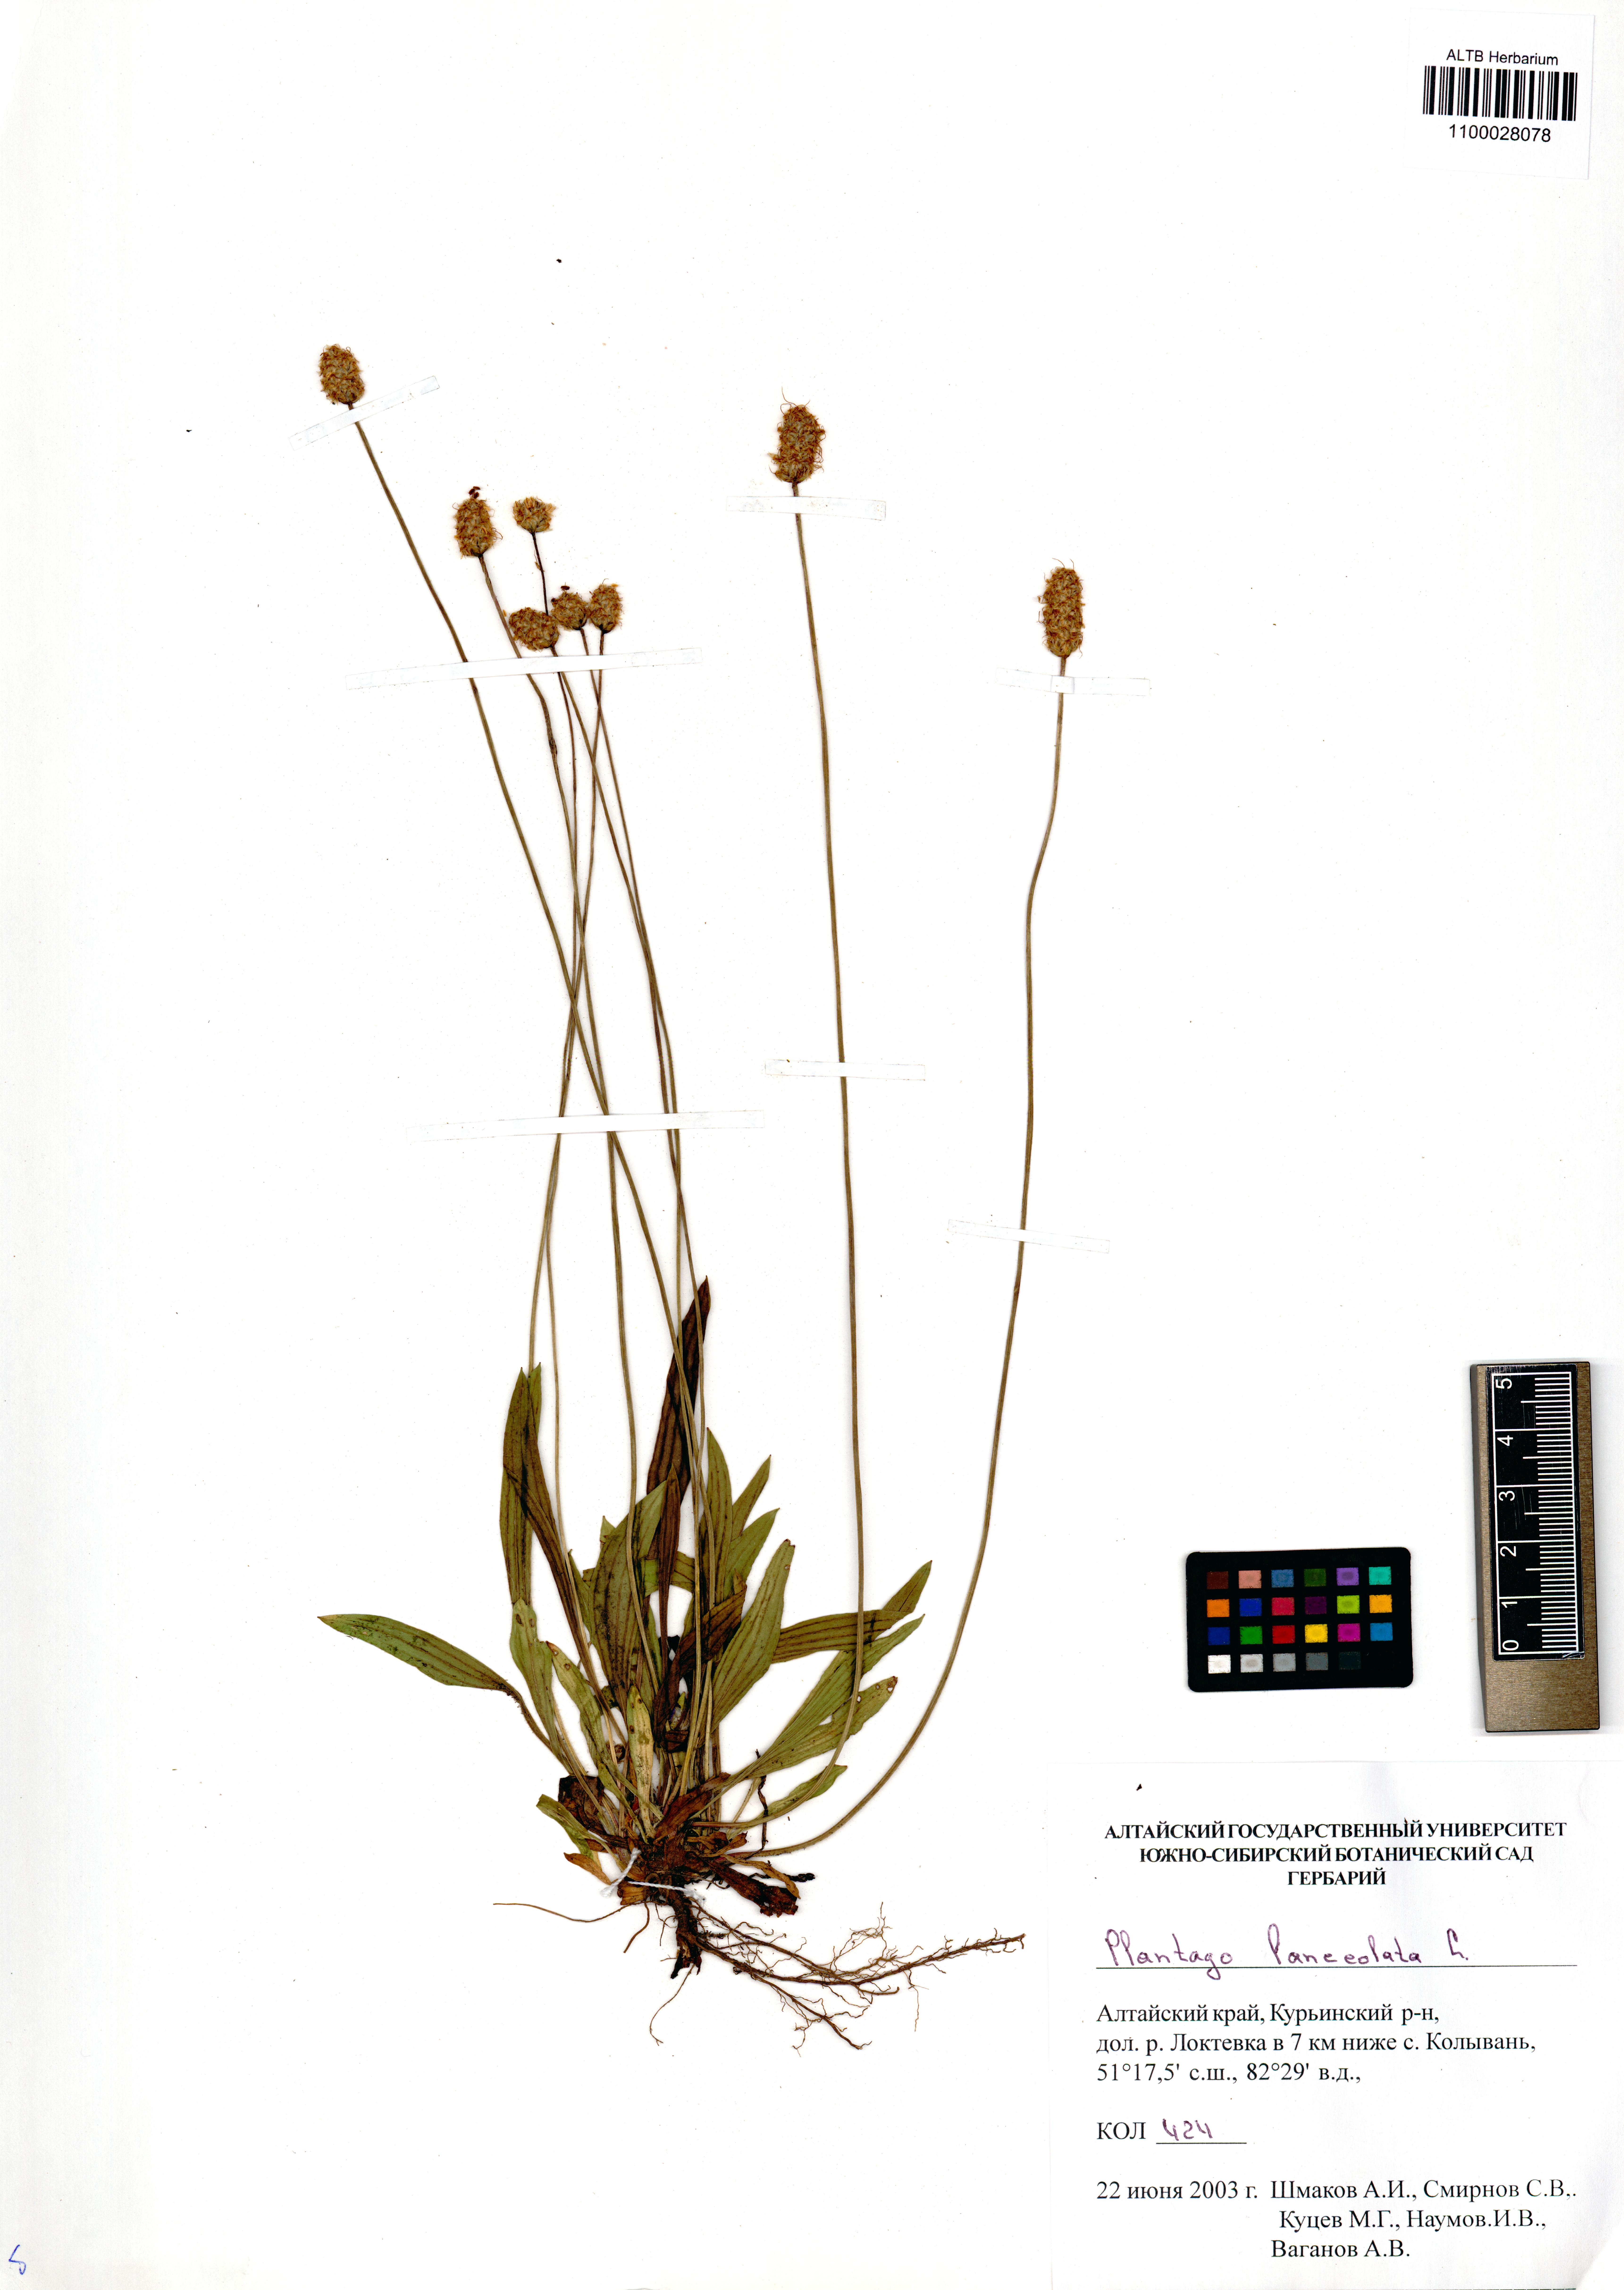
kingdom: Plantae
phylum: Tracheophyta
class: Magnoliopsida
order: Lamiales
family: Plantaginaceae
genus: Plantago
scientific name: Plantago lanceolata
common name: Ribwort plantain
